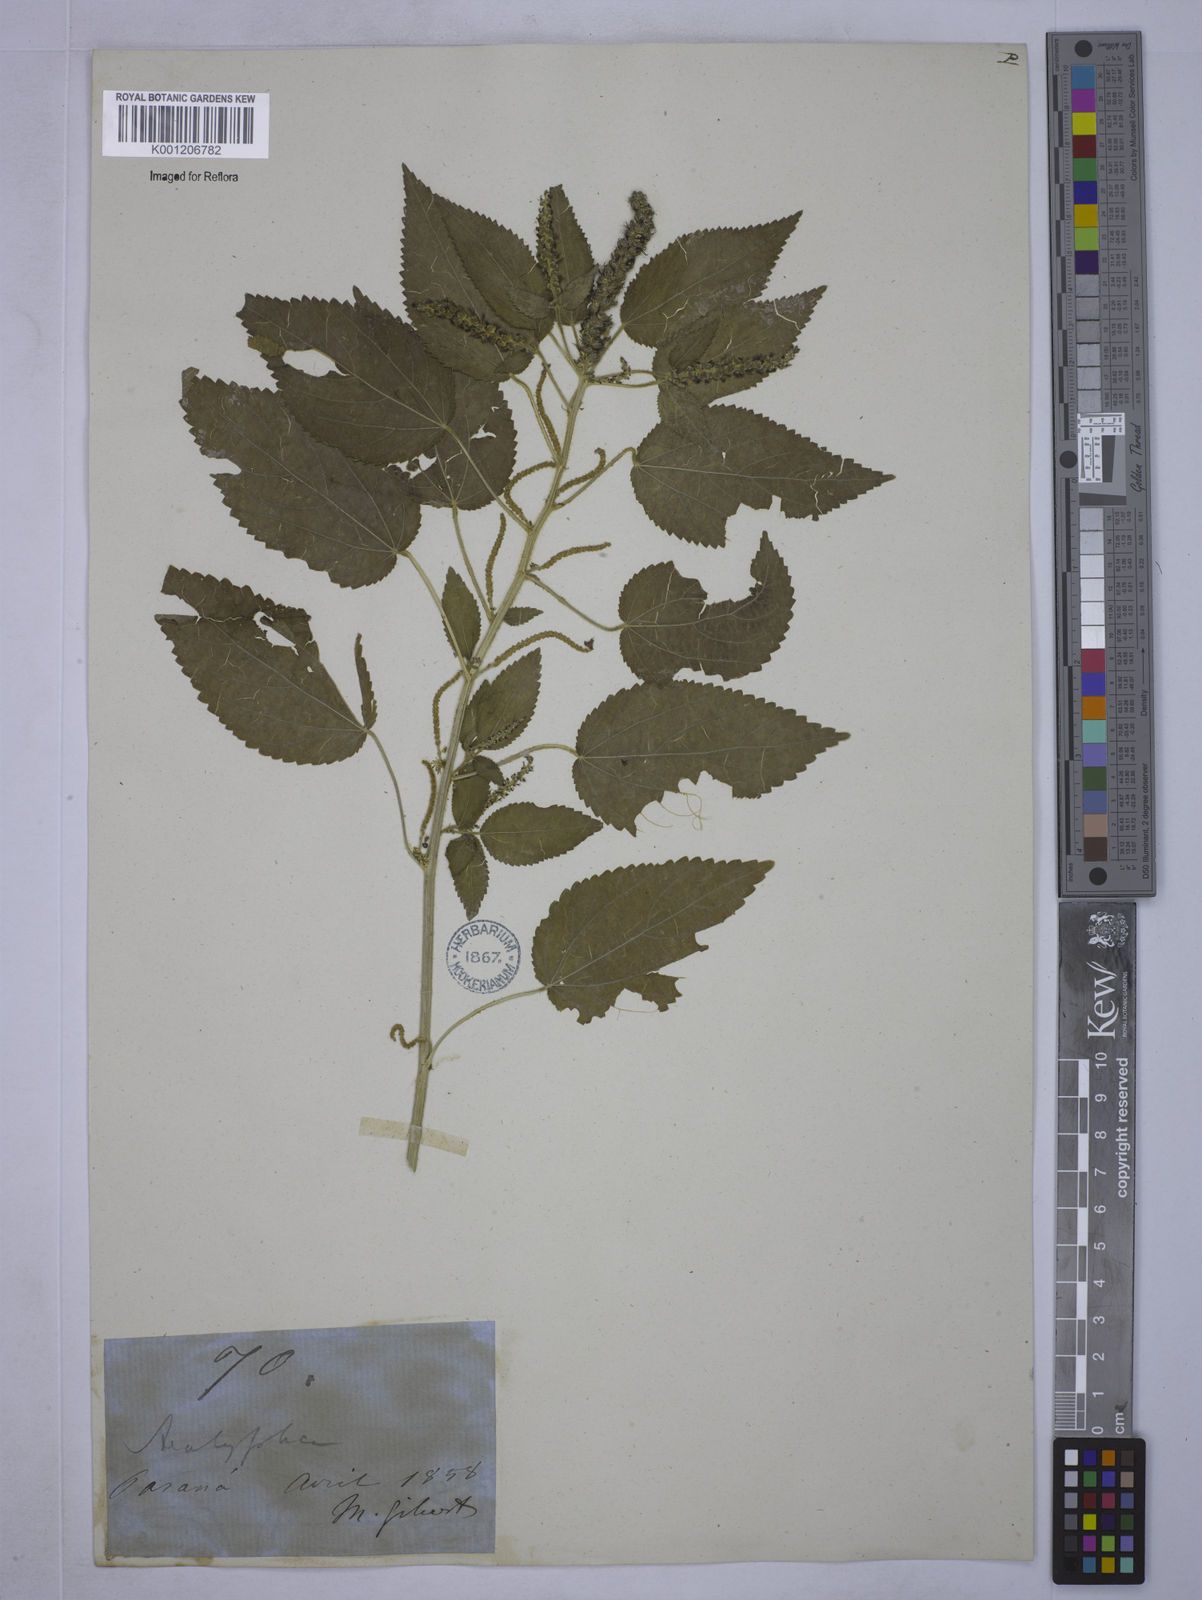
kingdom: Plantae
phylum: Tracheophyta
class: Magnoliopsida
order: Malpighiales
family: Euphorbiaceae
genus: Acalypha
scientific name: Acalypha
